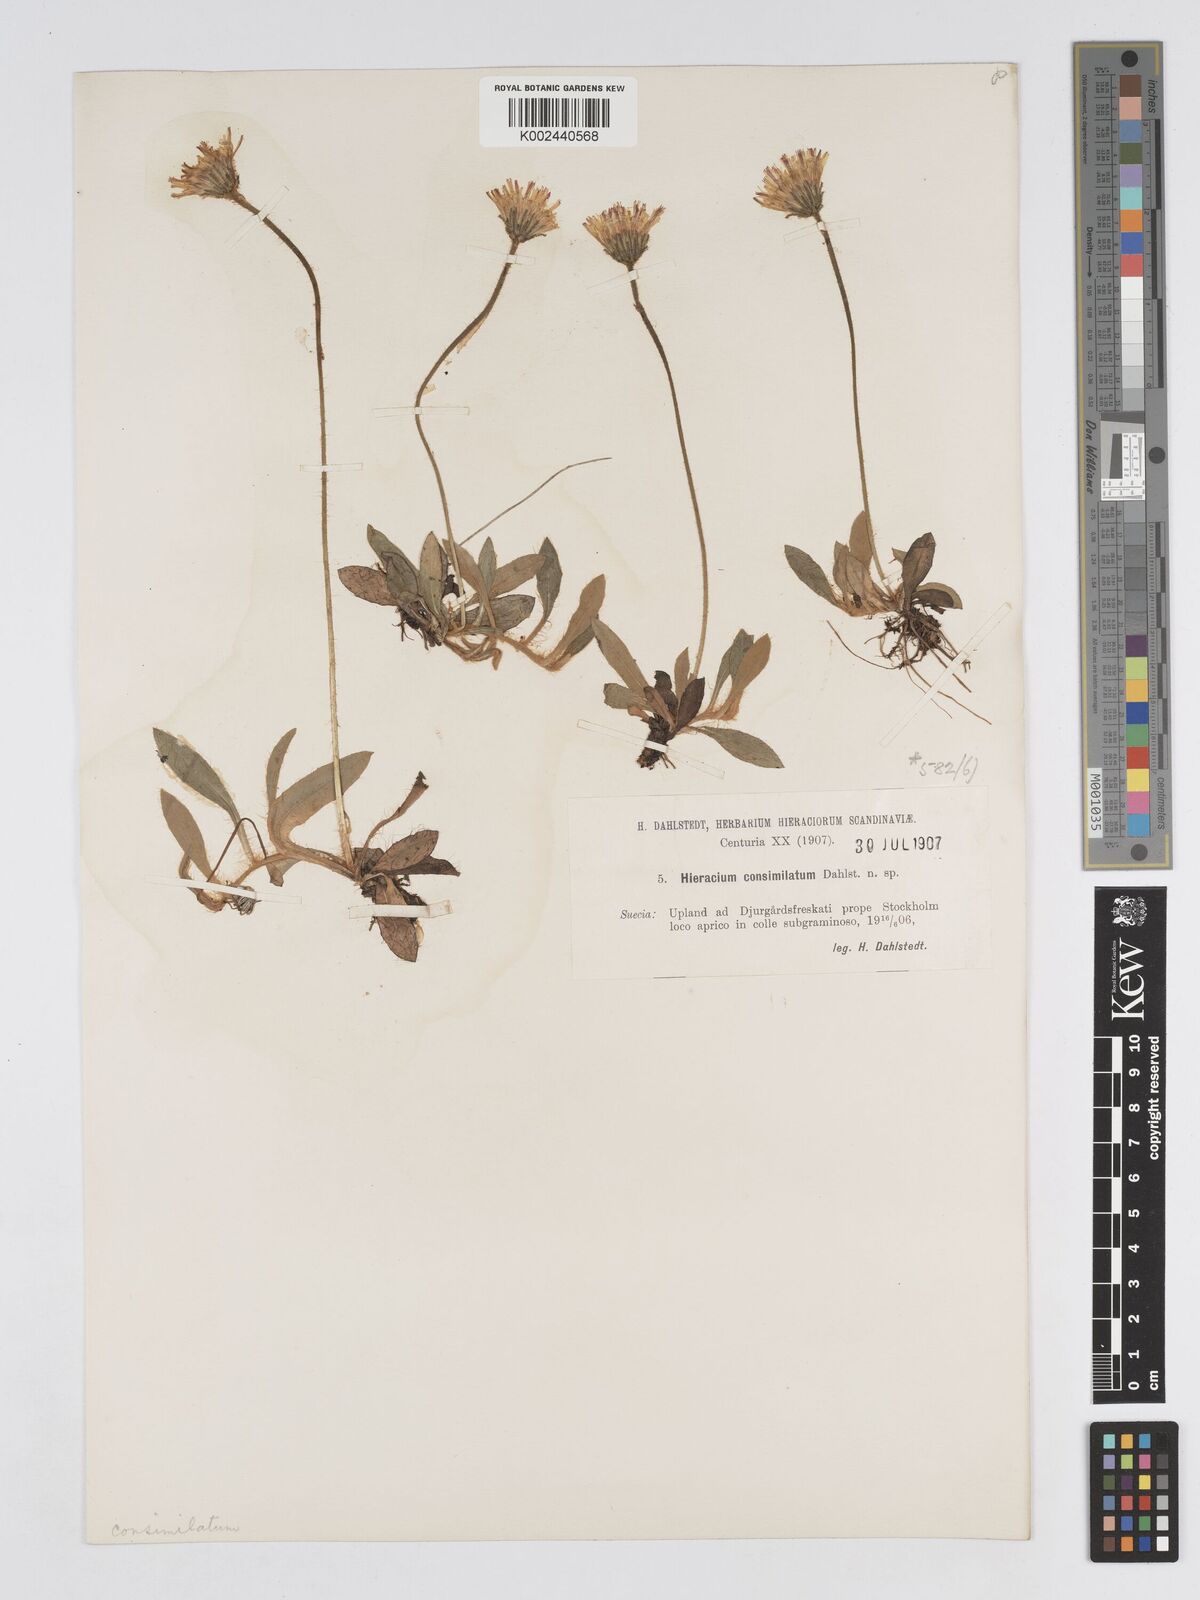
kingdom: Plantae
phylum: Tracheophyta
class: Magnoliopsida
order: Asterales
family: Asteraceae
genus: Pilosella
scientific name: Pilosella longisquama
